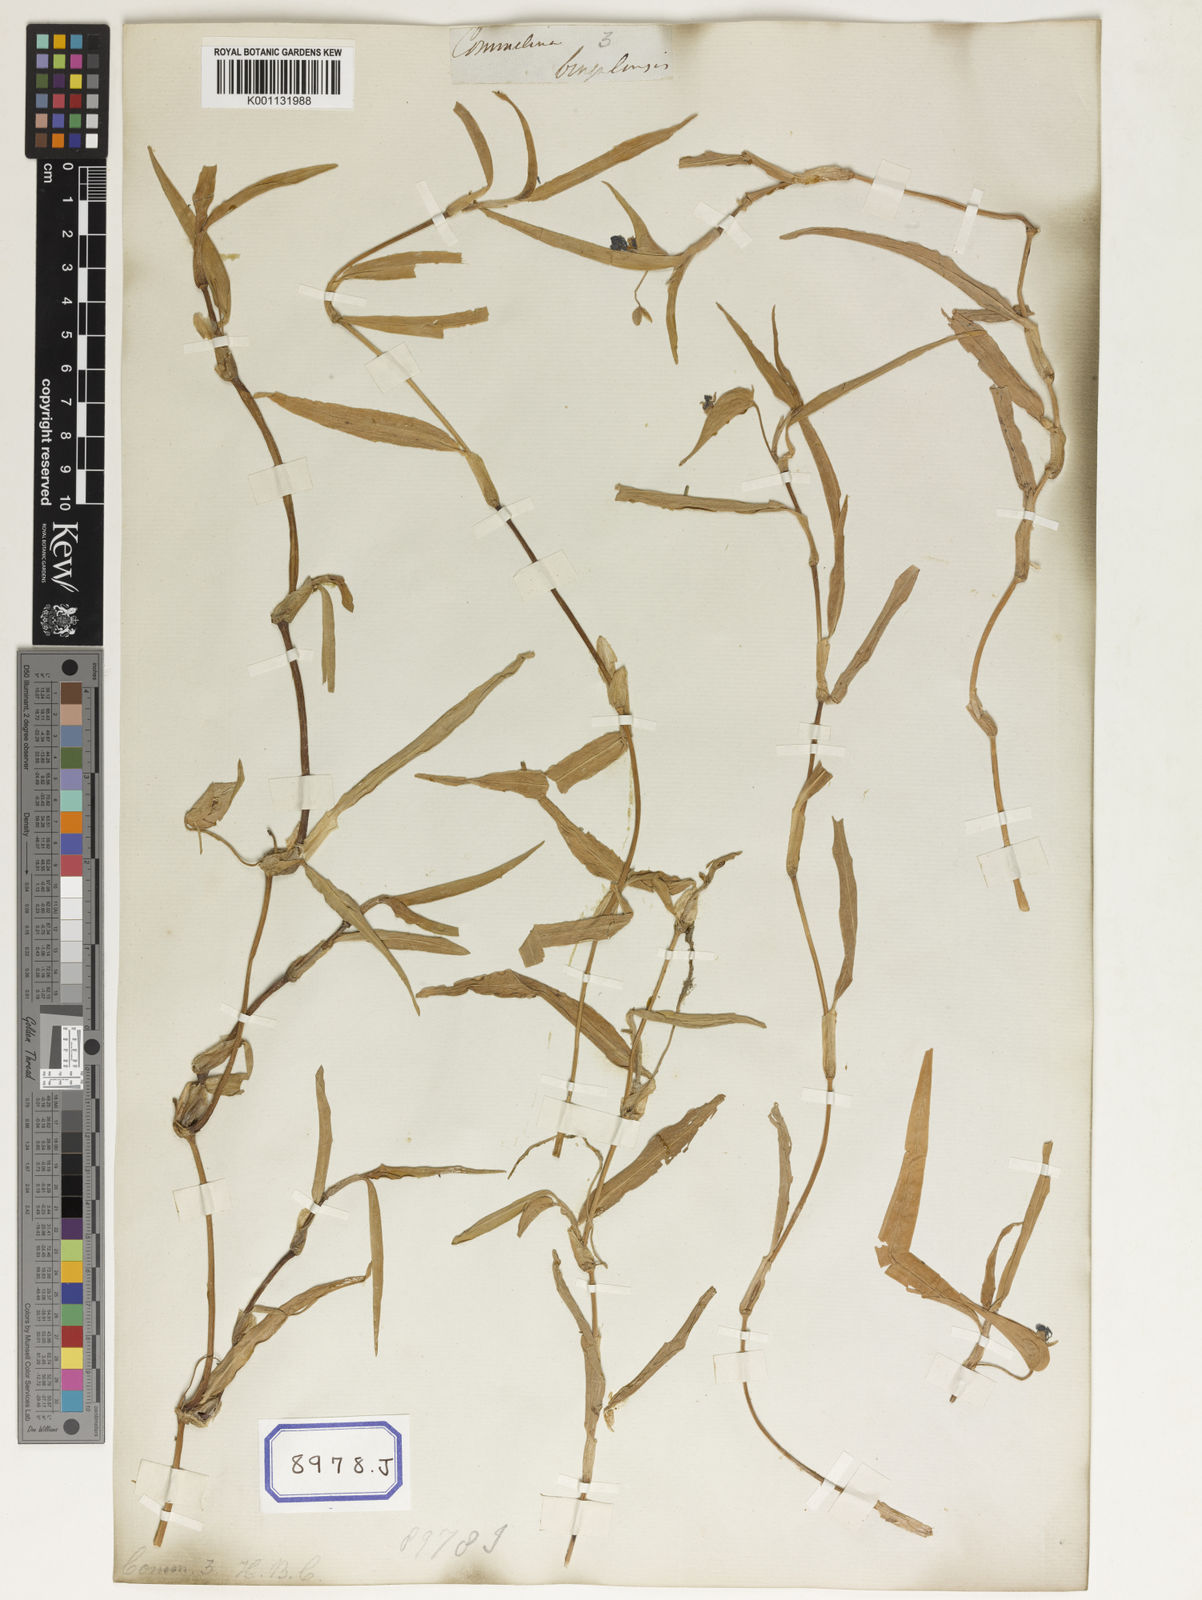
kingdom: Plantae
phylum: Tracheophyta
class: Liliopsida
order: Commelinales
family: Commelinaceae
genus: Commelina
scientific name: Commelina communis
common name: Asiatic dayflower
